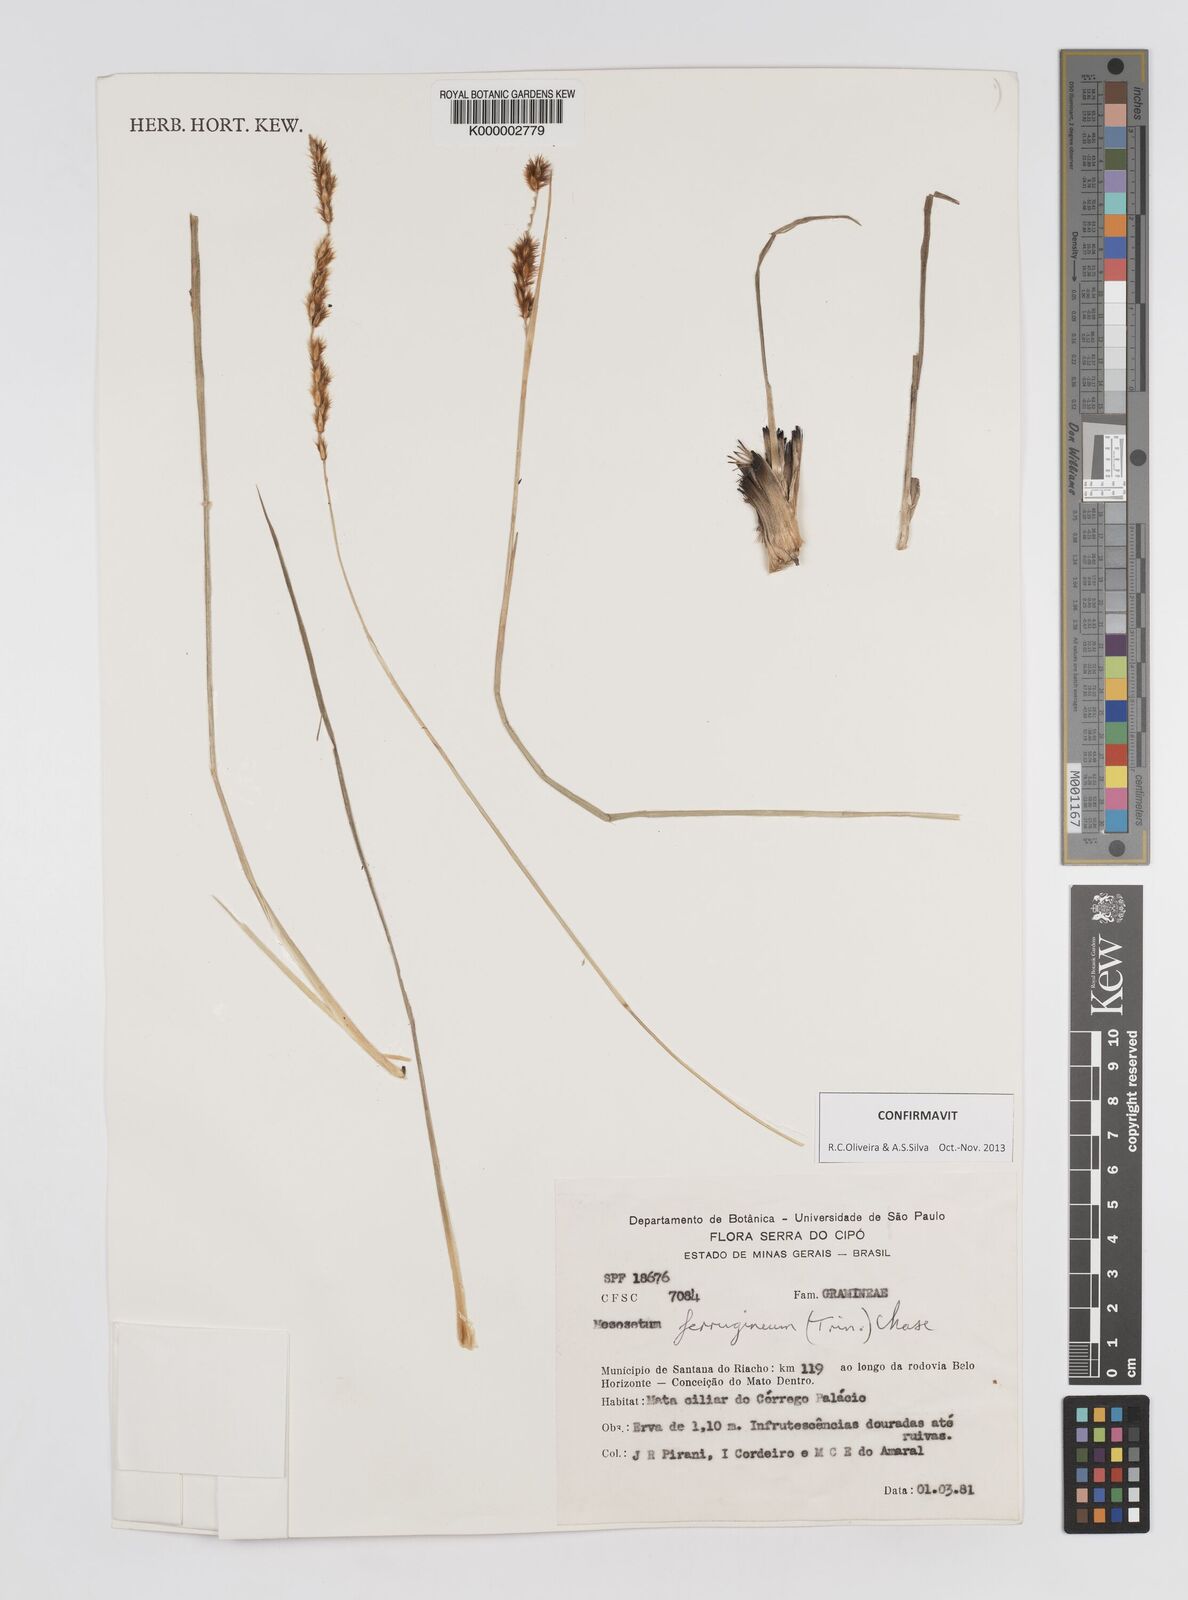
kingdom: Plantae
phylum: Tracheophyta
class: Liliopsida
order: Poales
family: Poaceae
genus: Mesosetum
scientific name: Mesosetum ferrugineum
